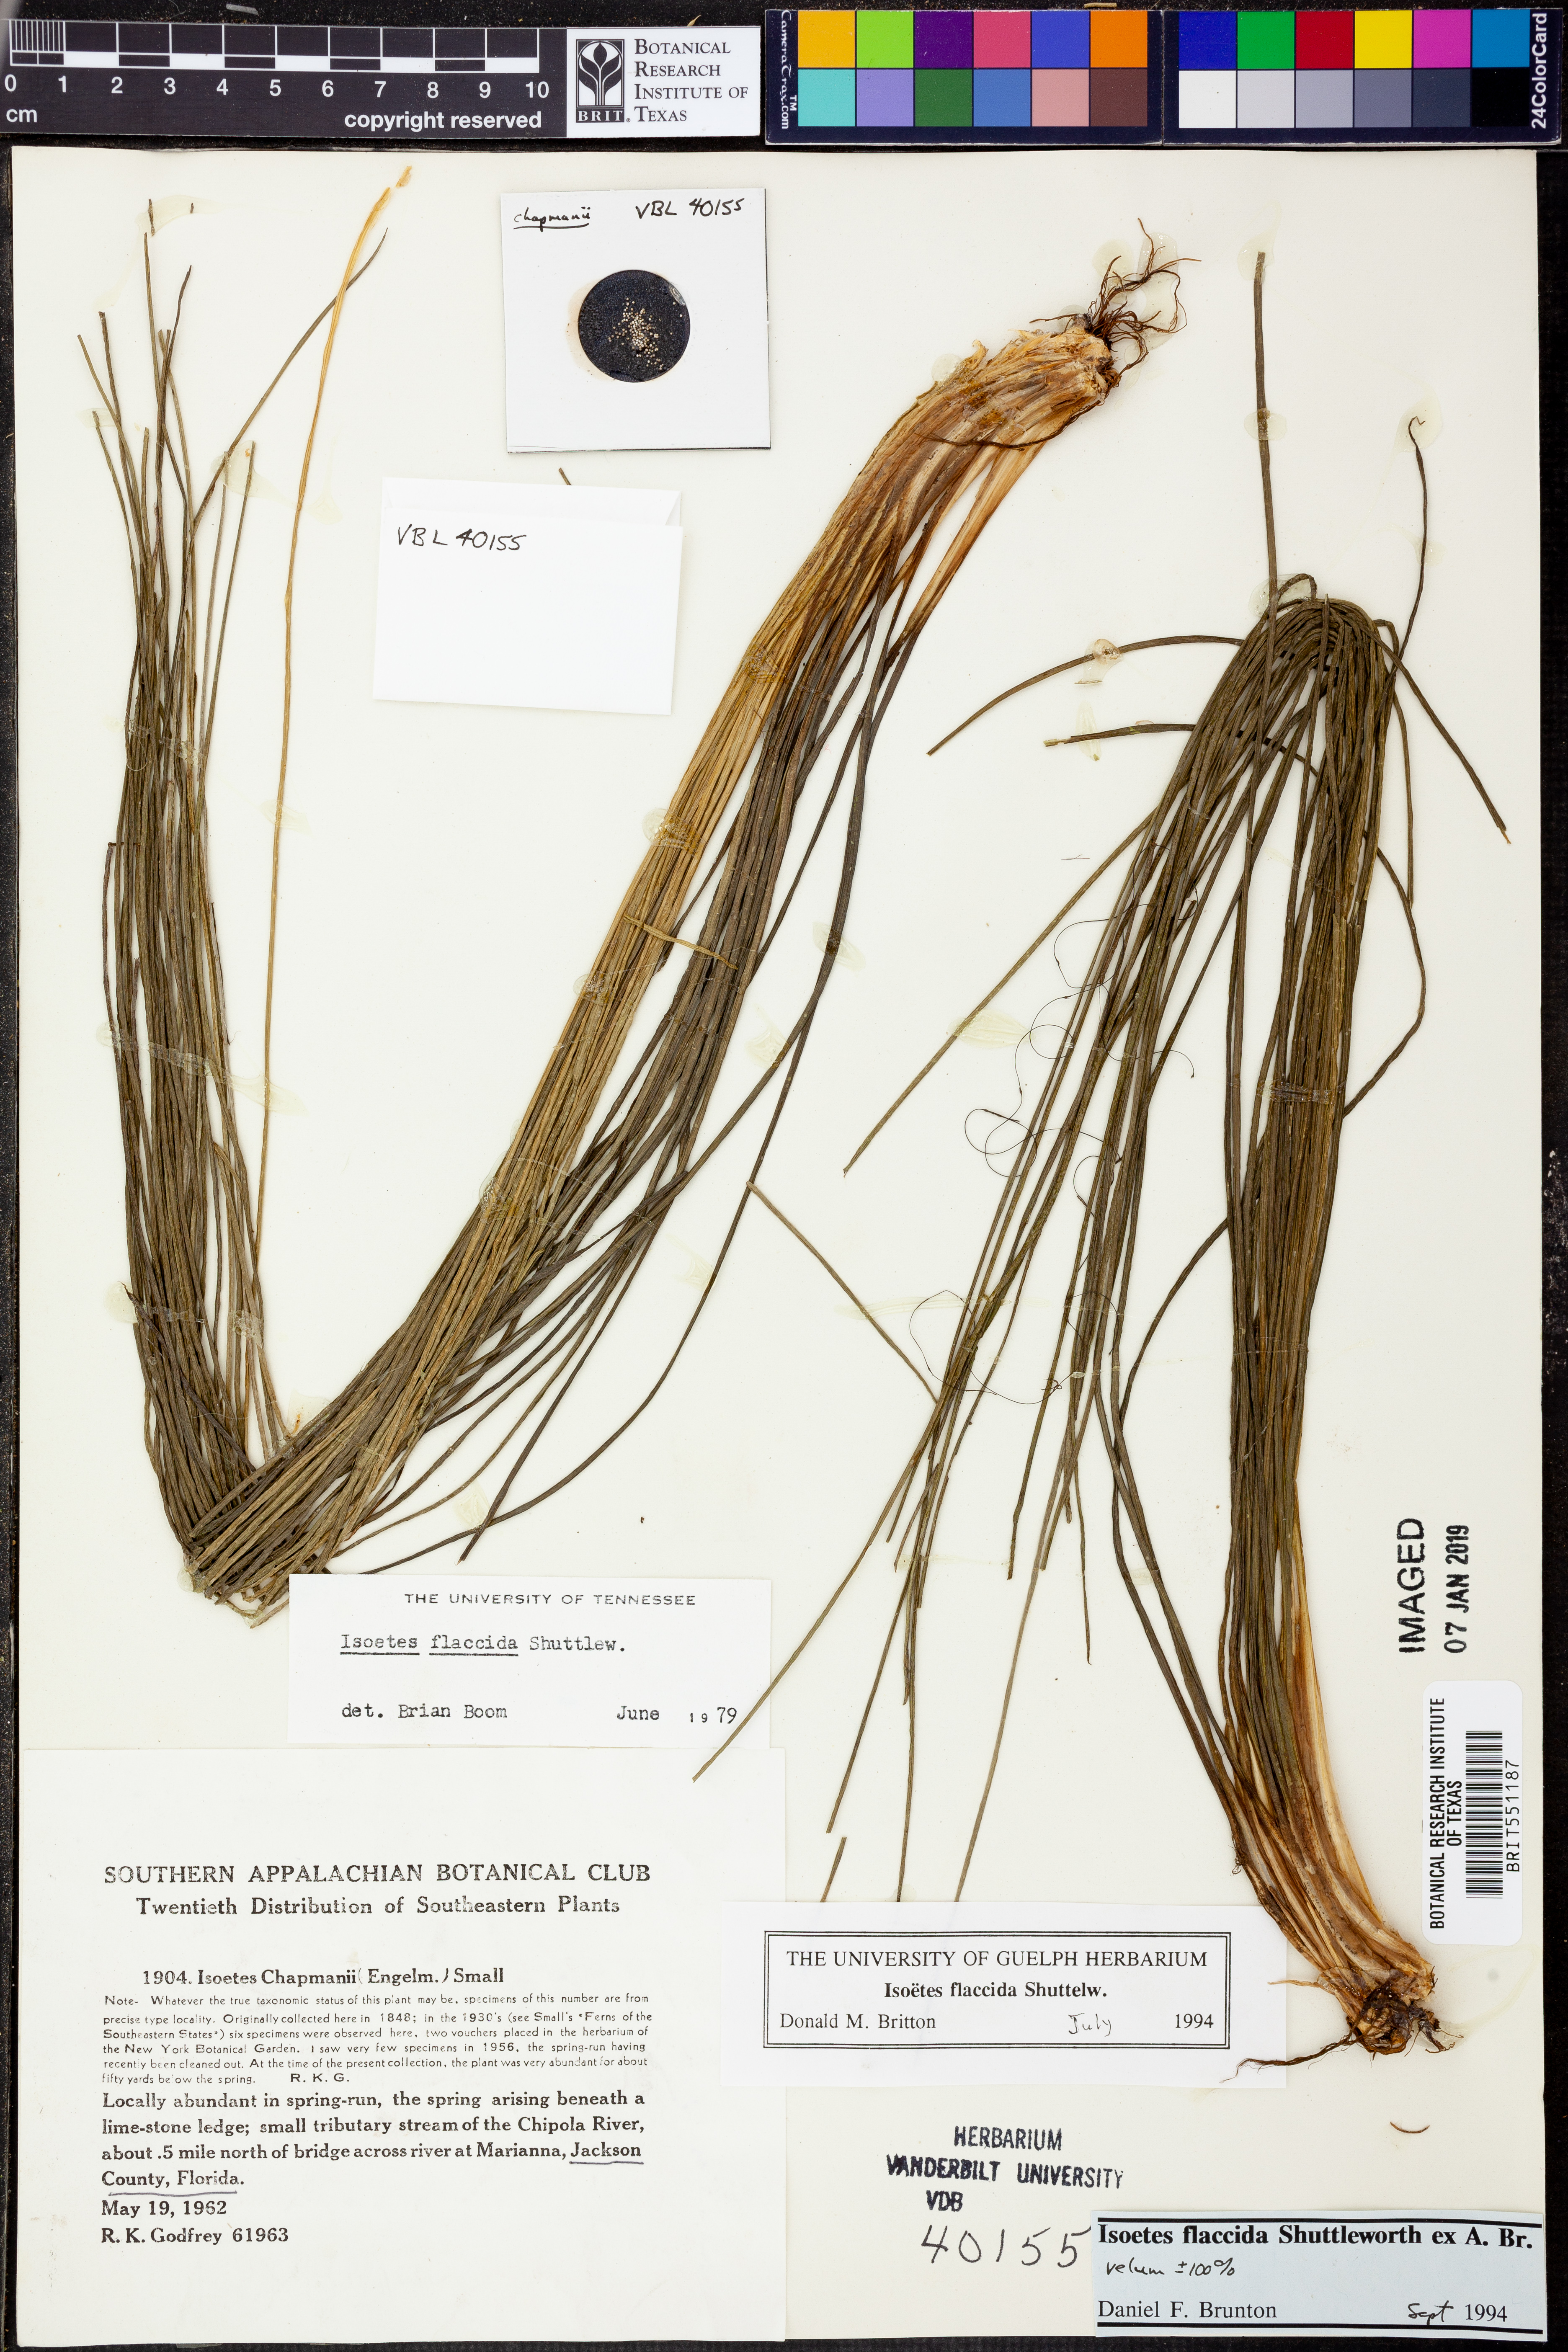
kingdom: Plantae
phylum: Tracheophyta
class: Lycopodiopsida
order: Isoetales
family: Isoetaceae
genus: Isoetes
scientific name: Isoetes flaccida
